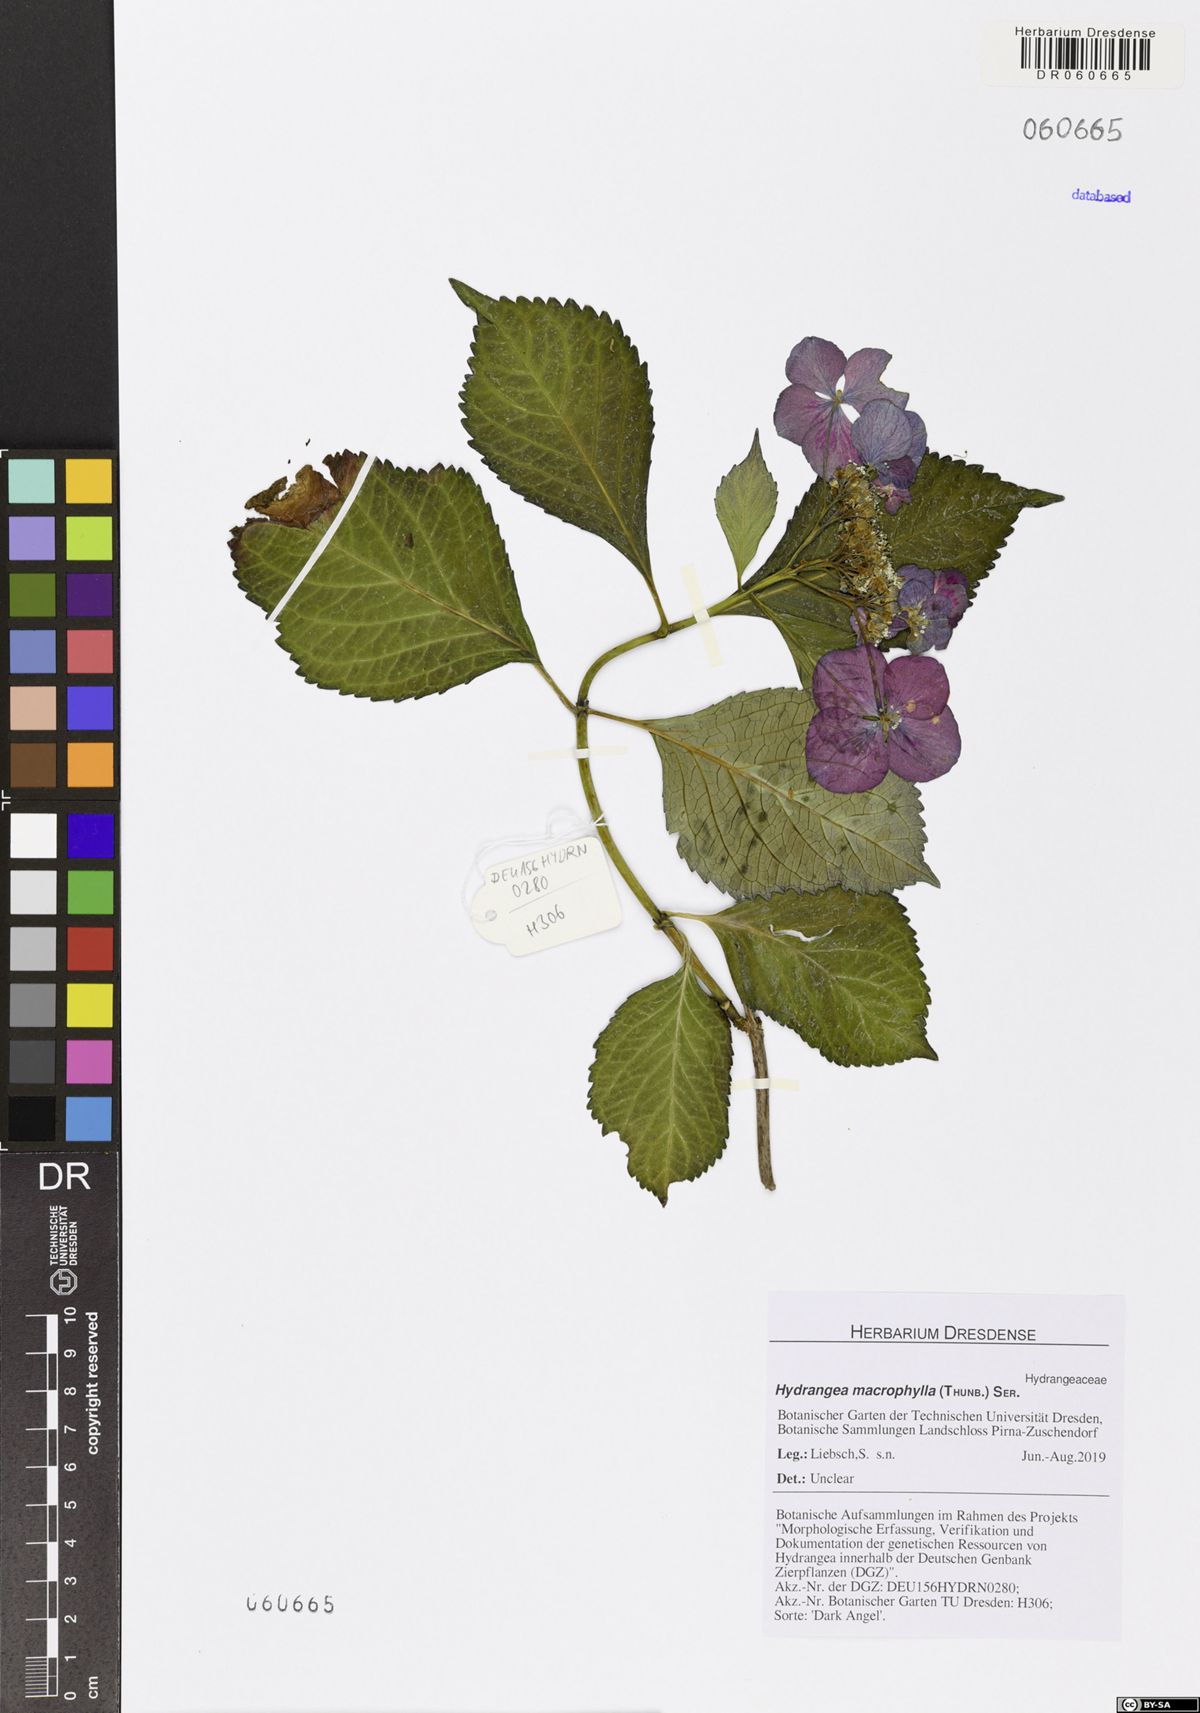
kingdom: Plantae
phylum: Tracheophyta
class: Magnoliopsida
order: Cornales
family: Hydrangeaceae
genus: Hydrangea
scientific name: Hydrangea macrophylla
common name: Hydrangea
